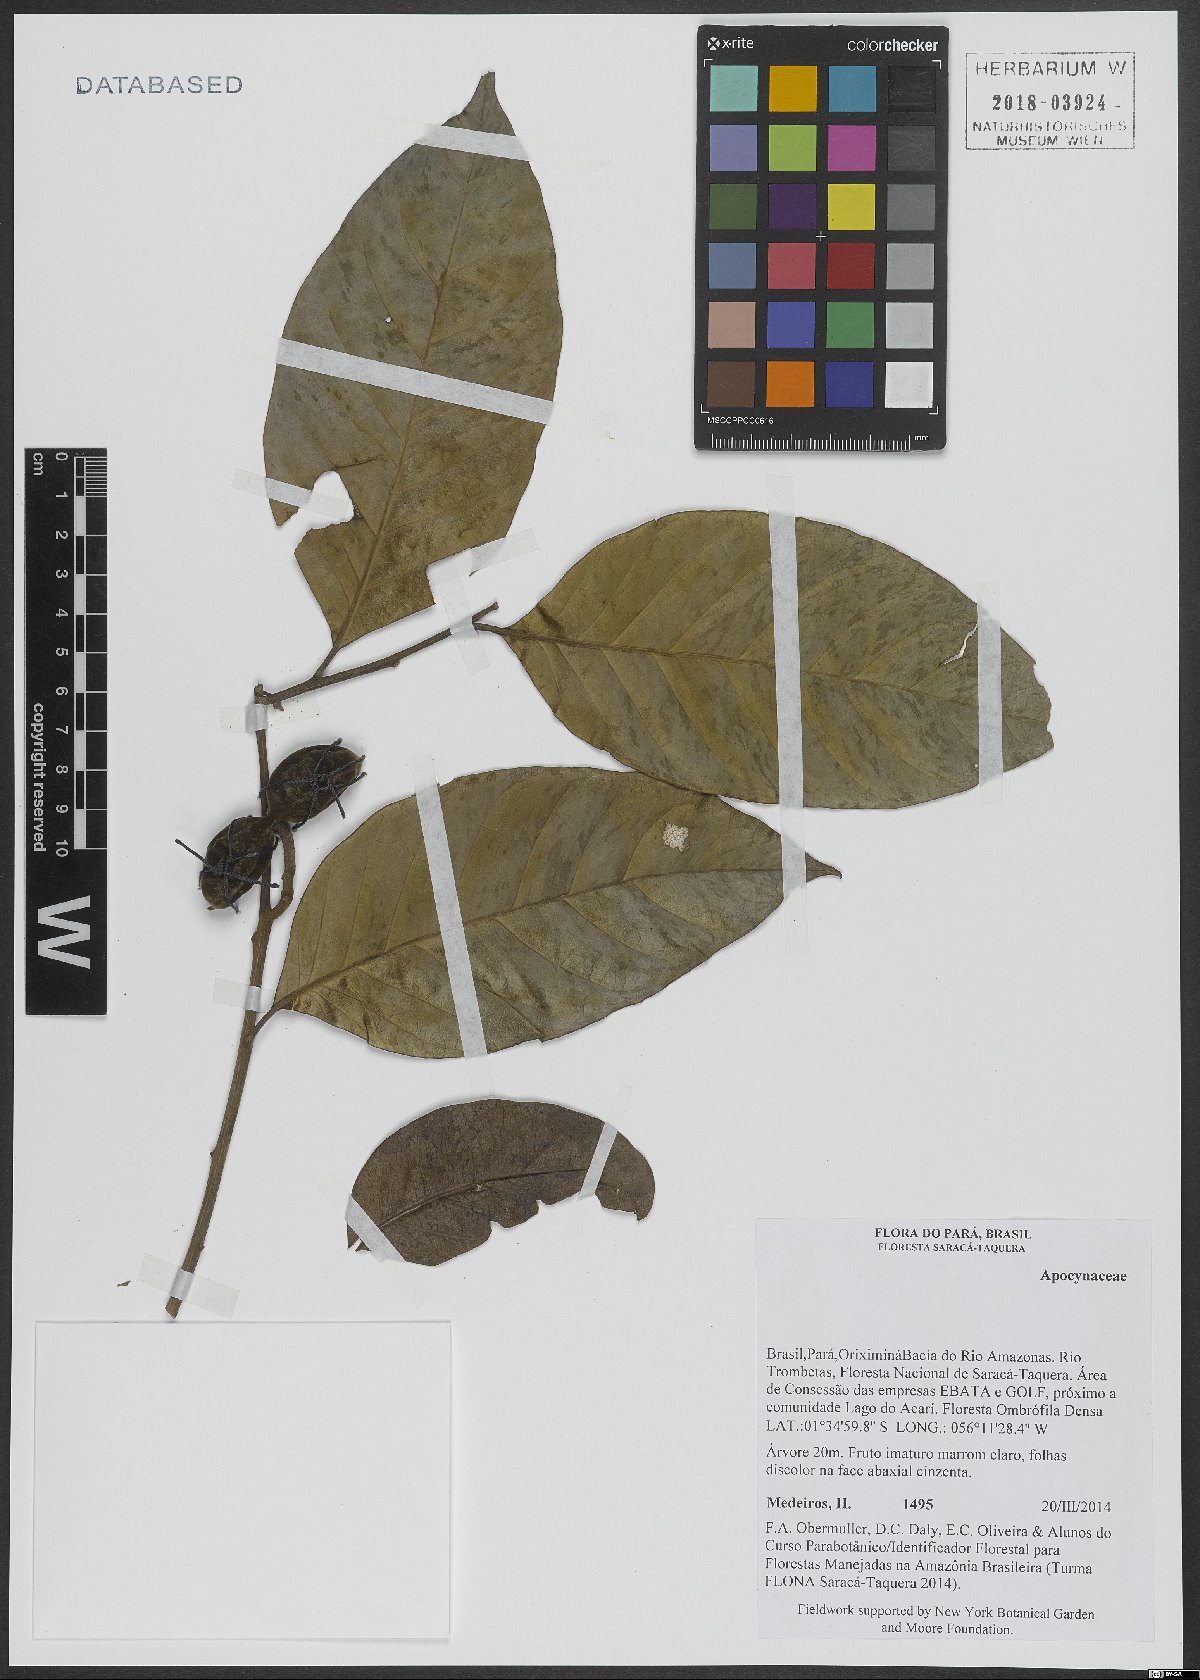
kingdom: Plantae
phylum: Tracheophyta
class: Magnoliopsida
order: Gentianales
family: Apocynaceae
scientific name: Apocynaceae
